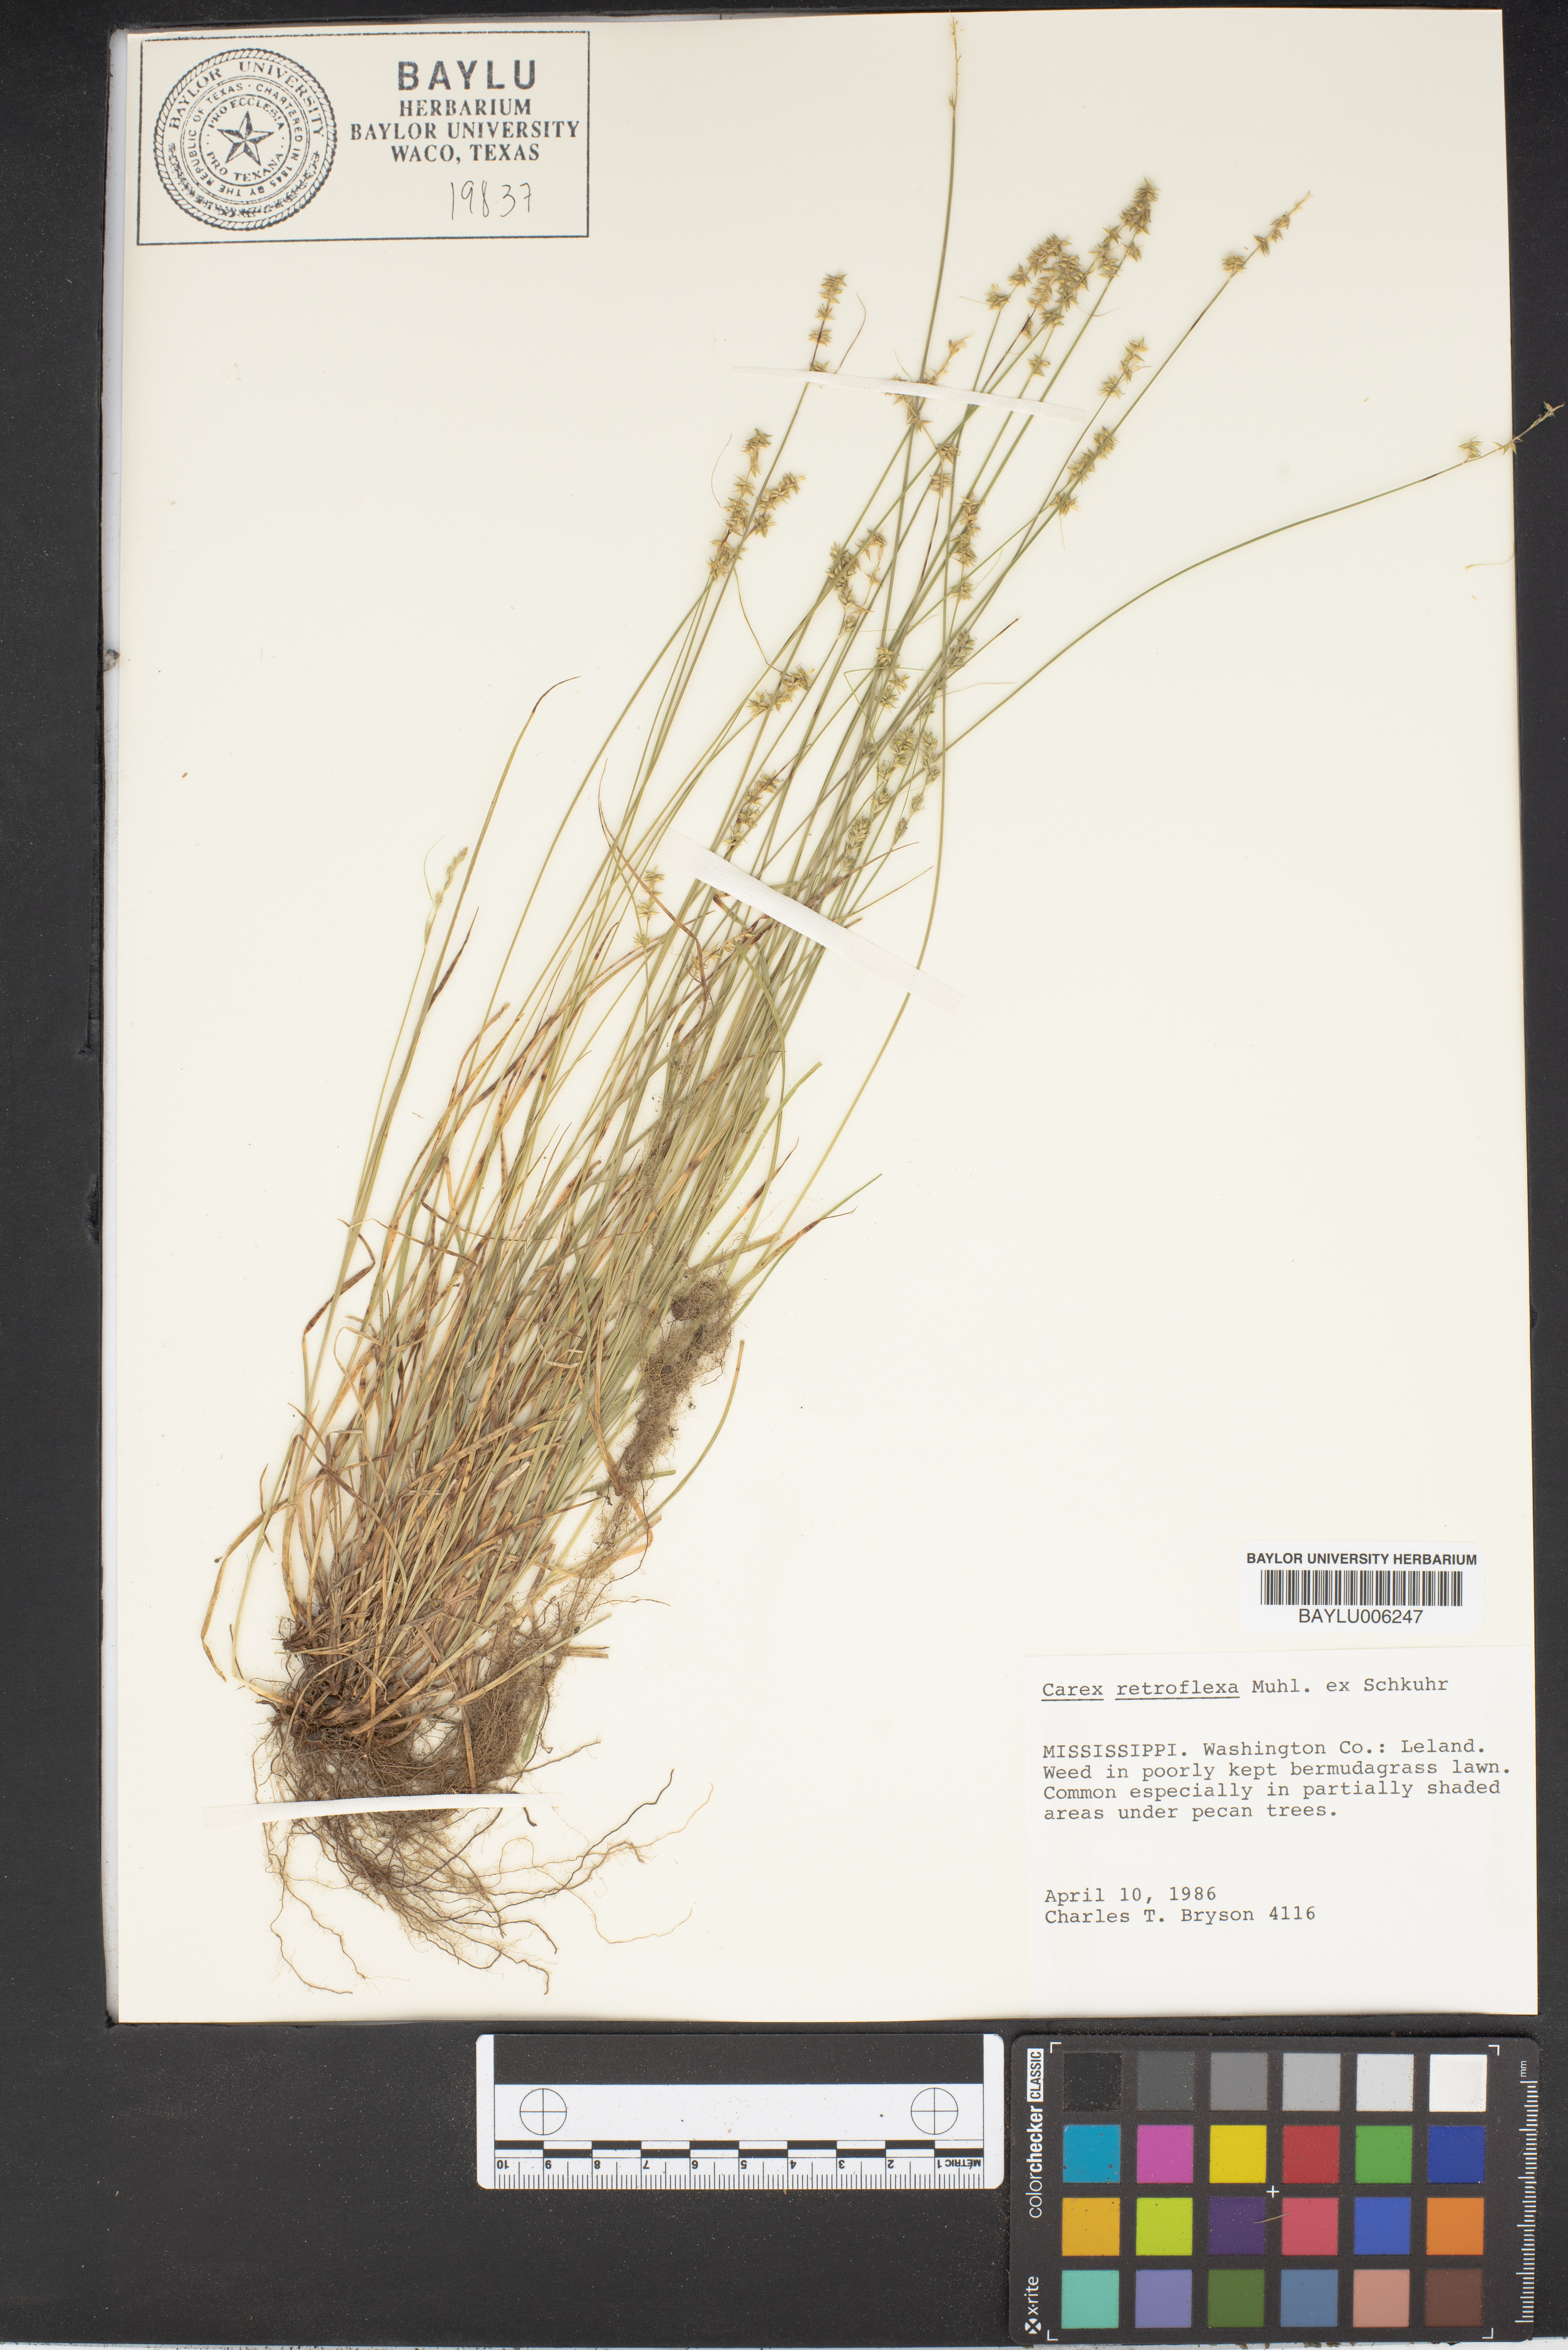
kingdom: Plantae
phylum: Tracheophyta
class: Liliopsida
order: Poales
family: Cyperaceae
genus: Carex
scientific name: Carex retroflexa
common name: Reflexed sedge
